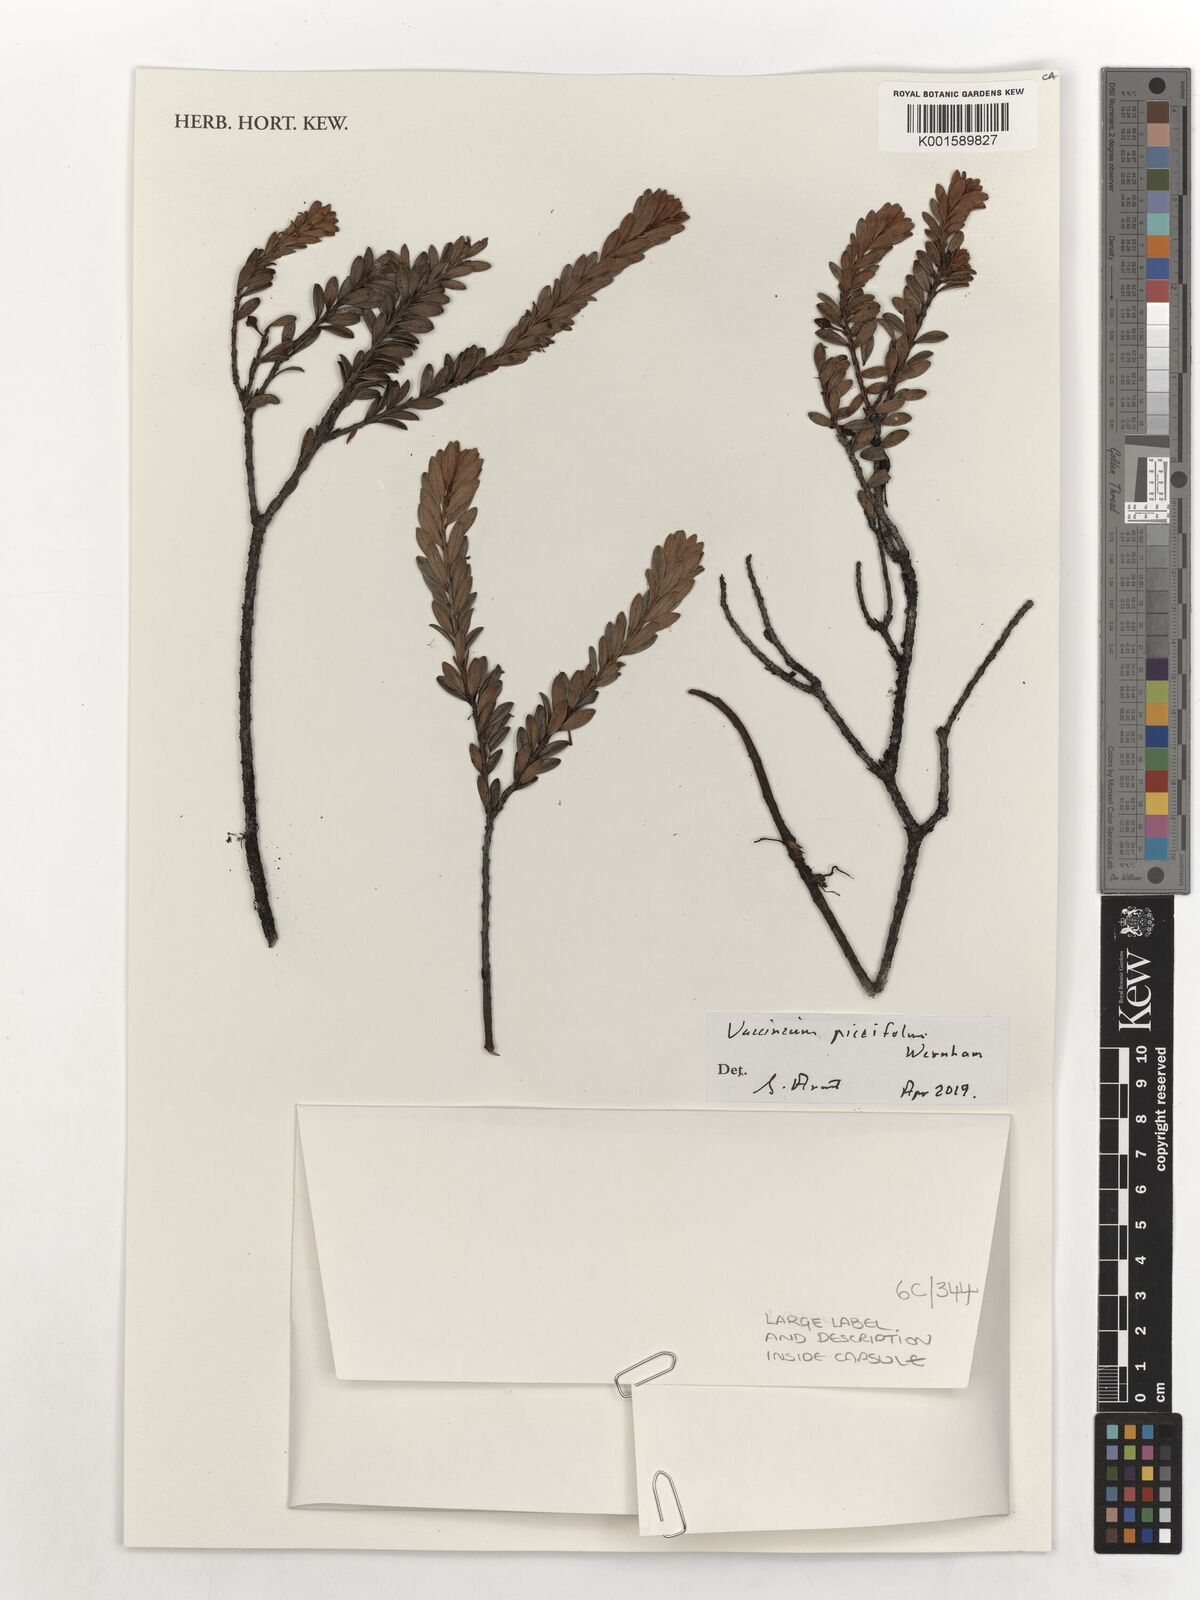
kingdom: Plantae
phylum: Tracheophyta
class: Magnoliopsida
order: Ericales
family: Ericaceae
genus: Vaccinium
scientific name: Vaccinium piceifolium
